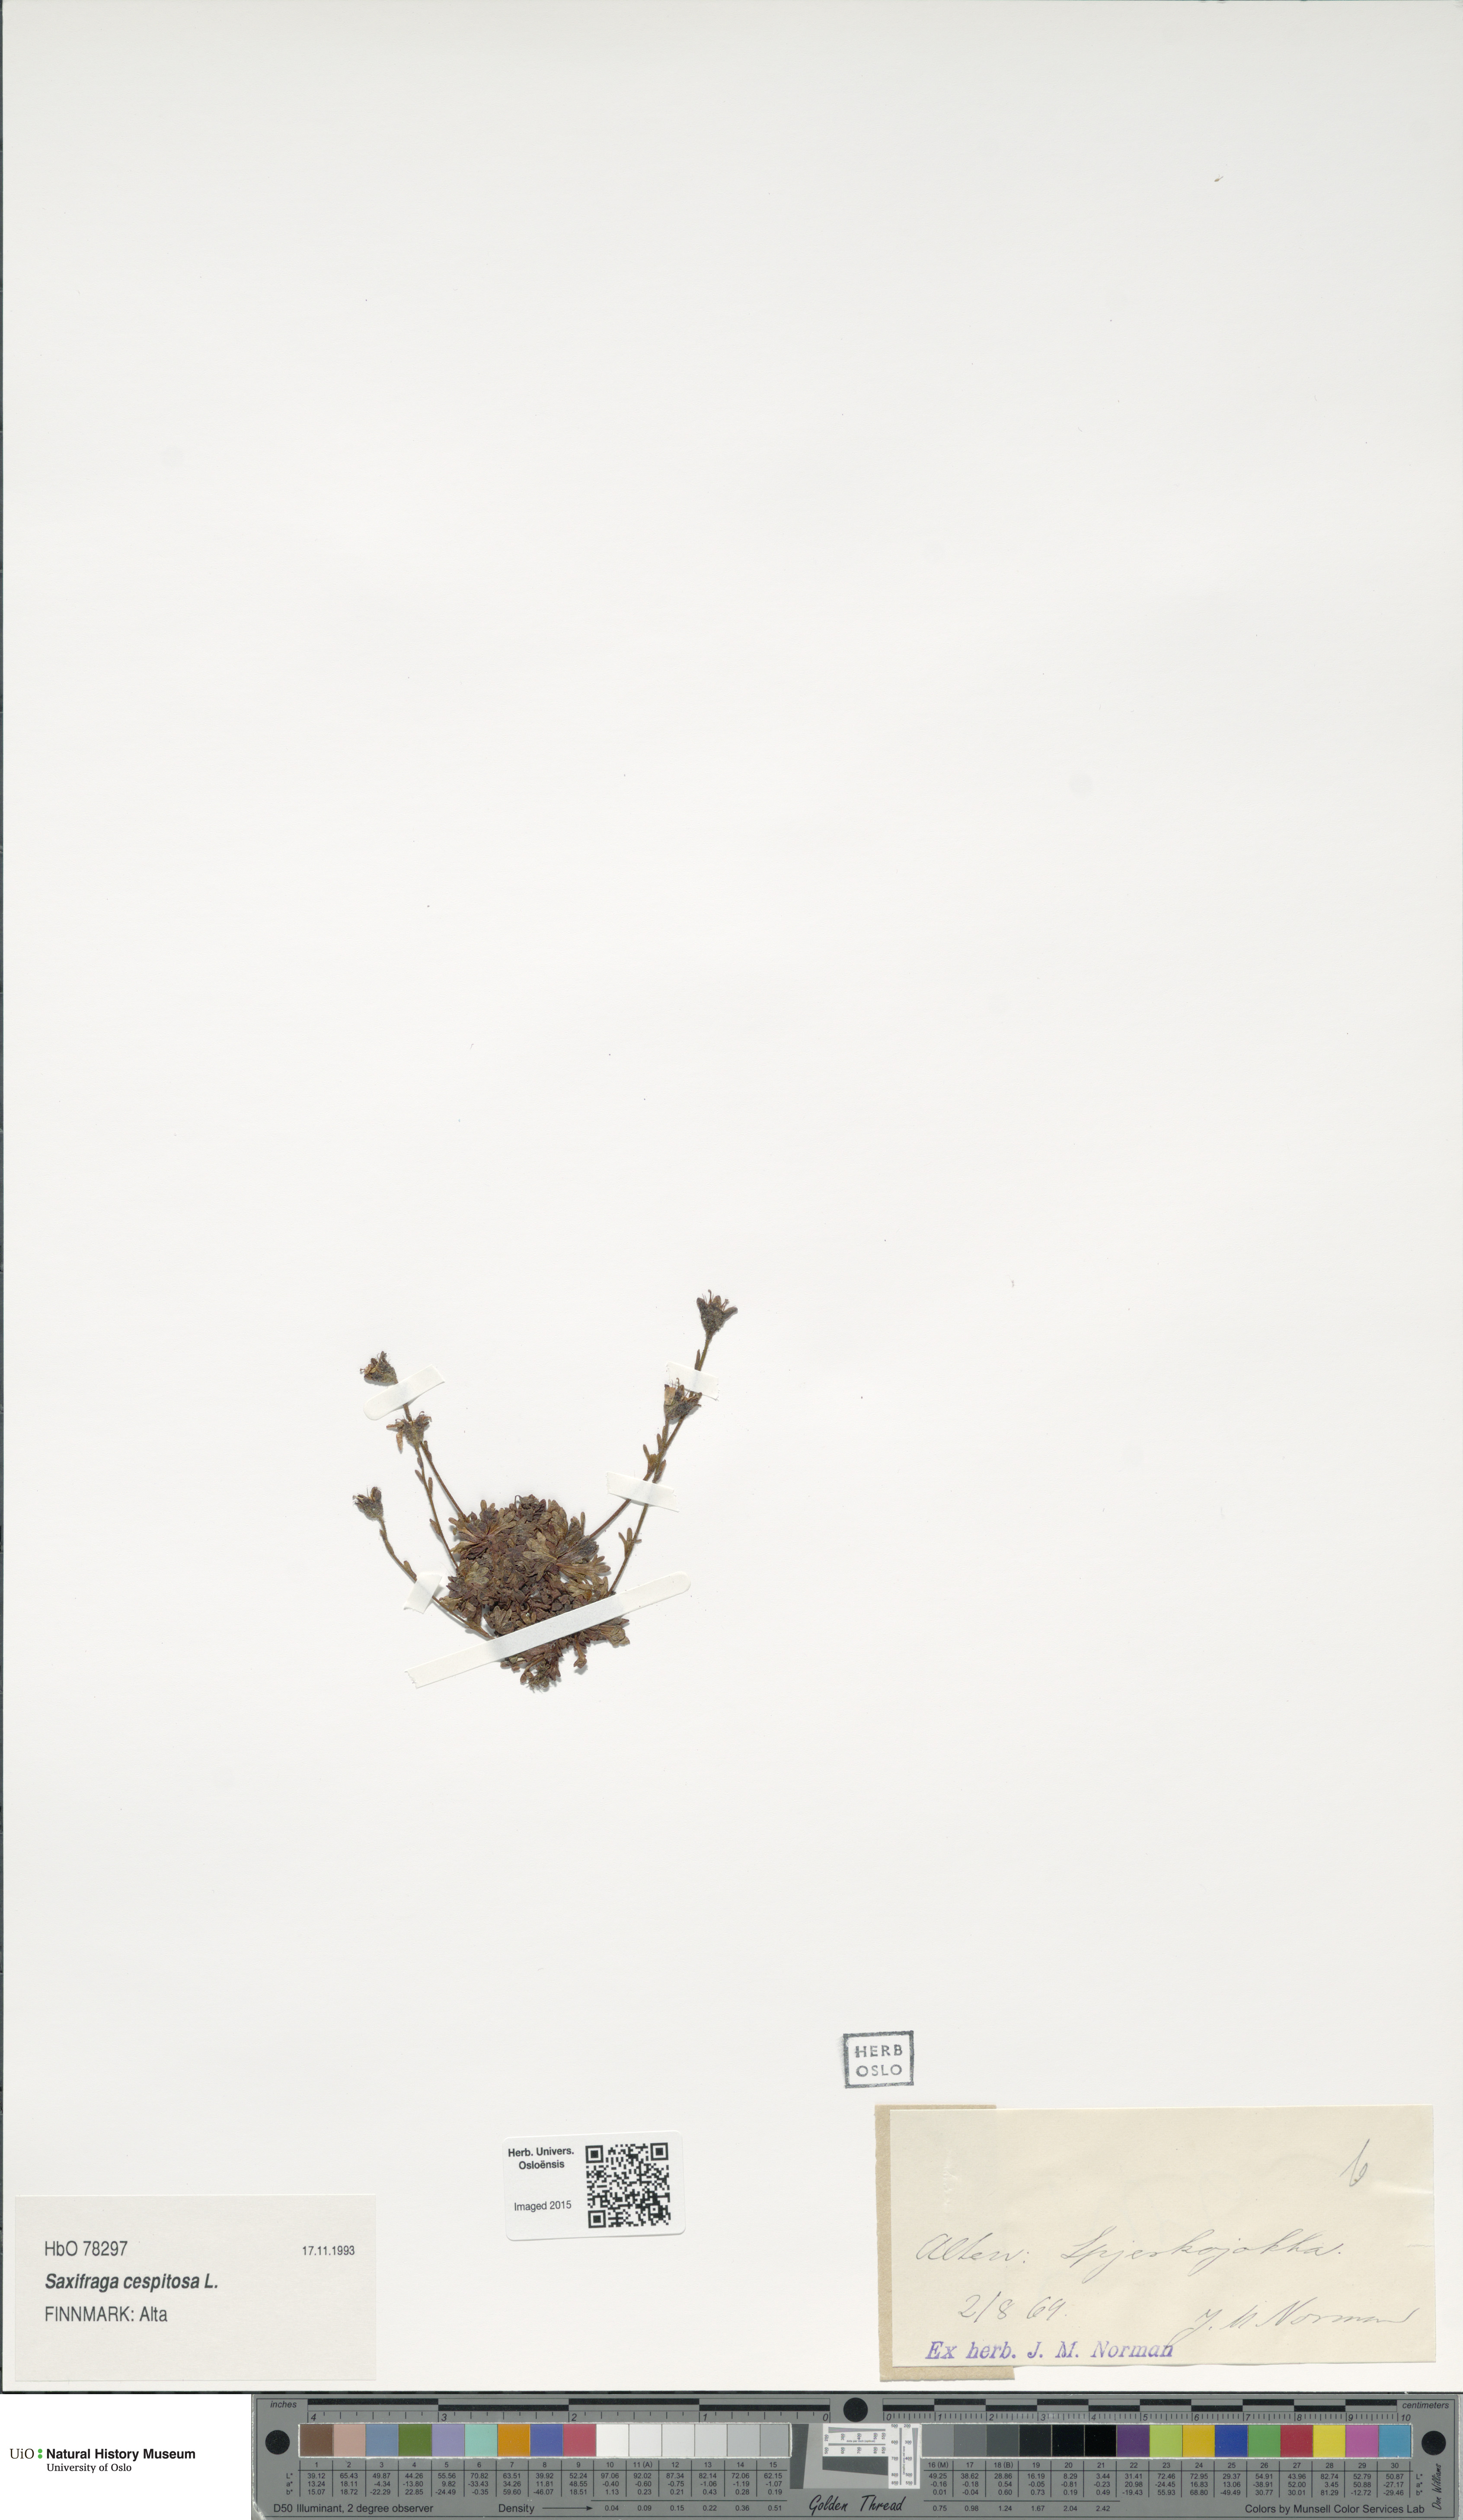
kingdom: Plantae
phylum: Tracheophyta
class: Magnoliopsida
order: Saxifragales
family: Saxifragaceae
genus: Saxifraga
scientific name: Saxifraga cespitosa
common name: Tufted saxifrage
